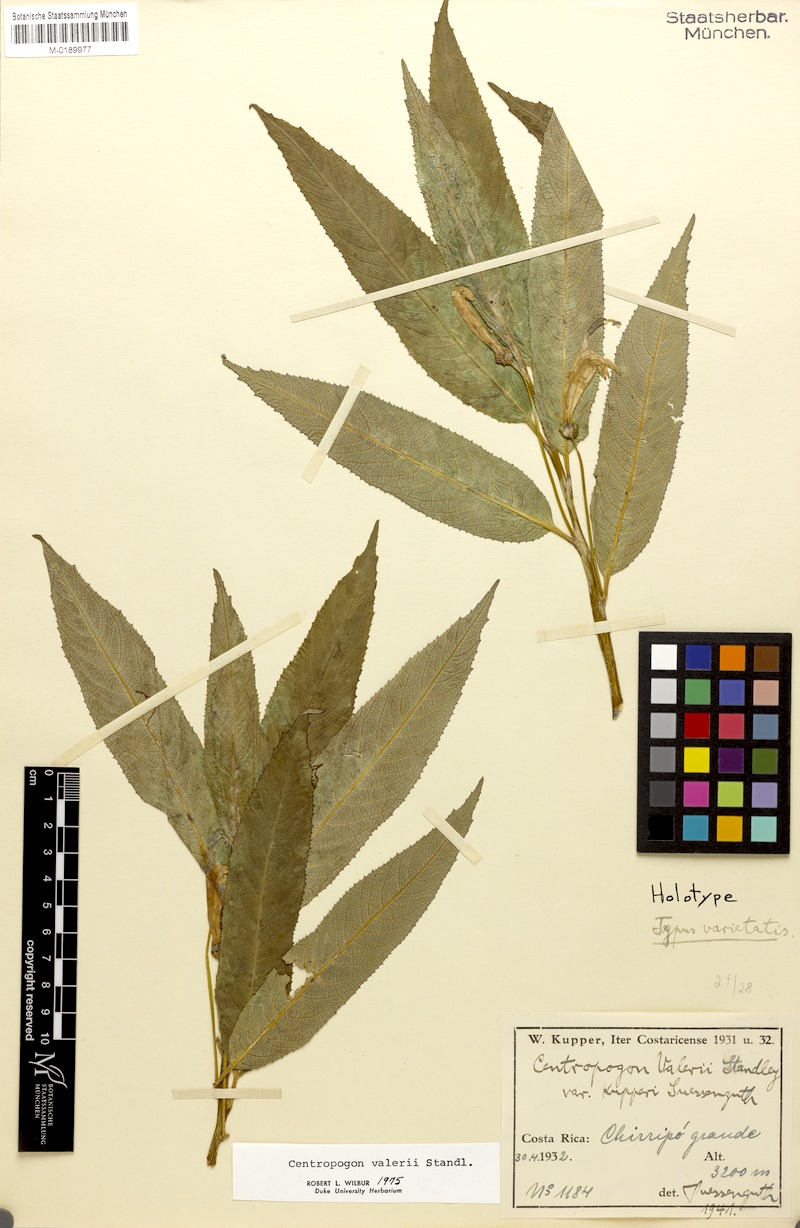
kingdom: Plantae
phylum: Tracheophyta
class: Magnoliopsida
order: Asterales
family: Campanulaceae
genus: Centropogon
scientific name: Centropogon valerii
